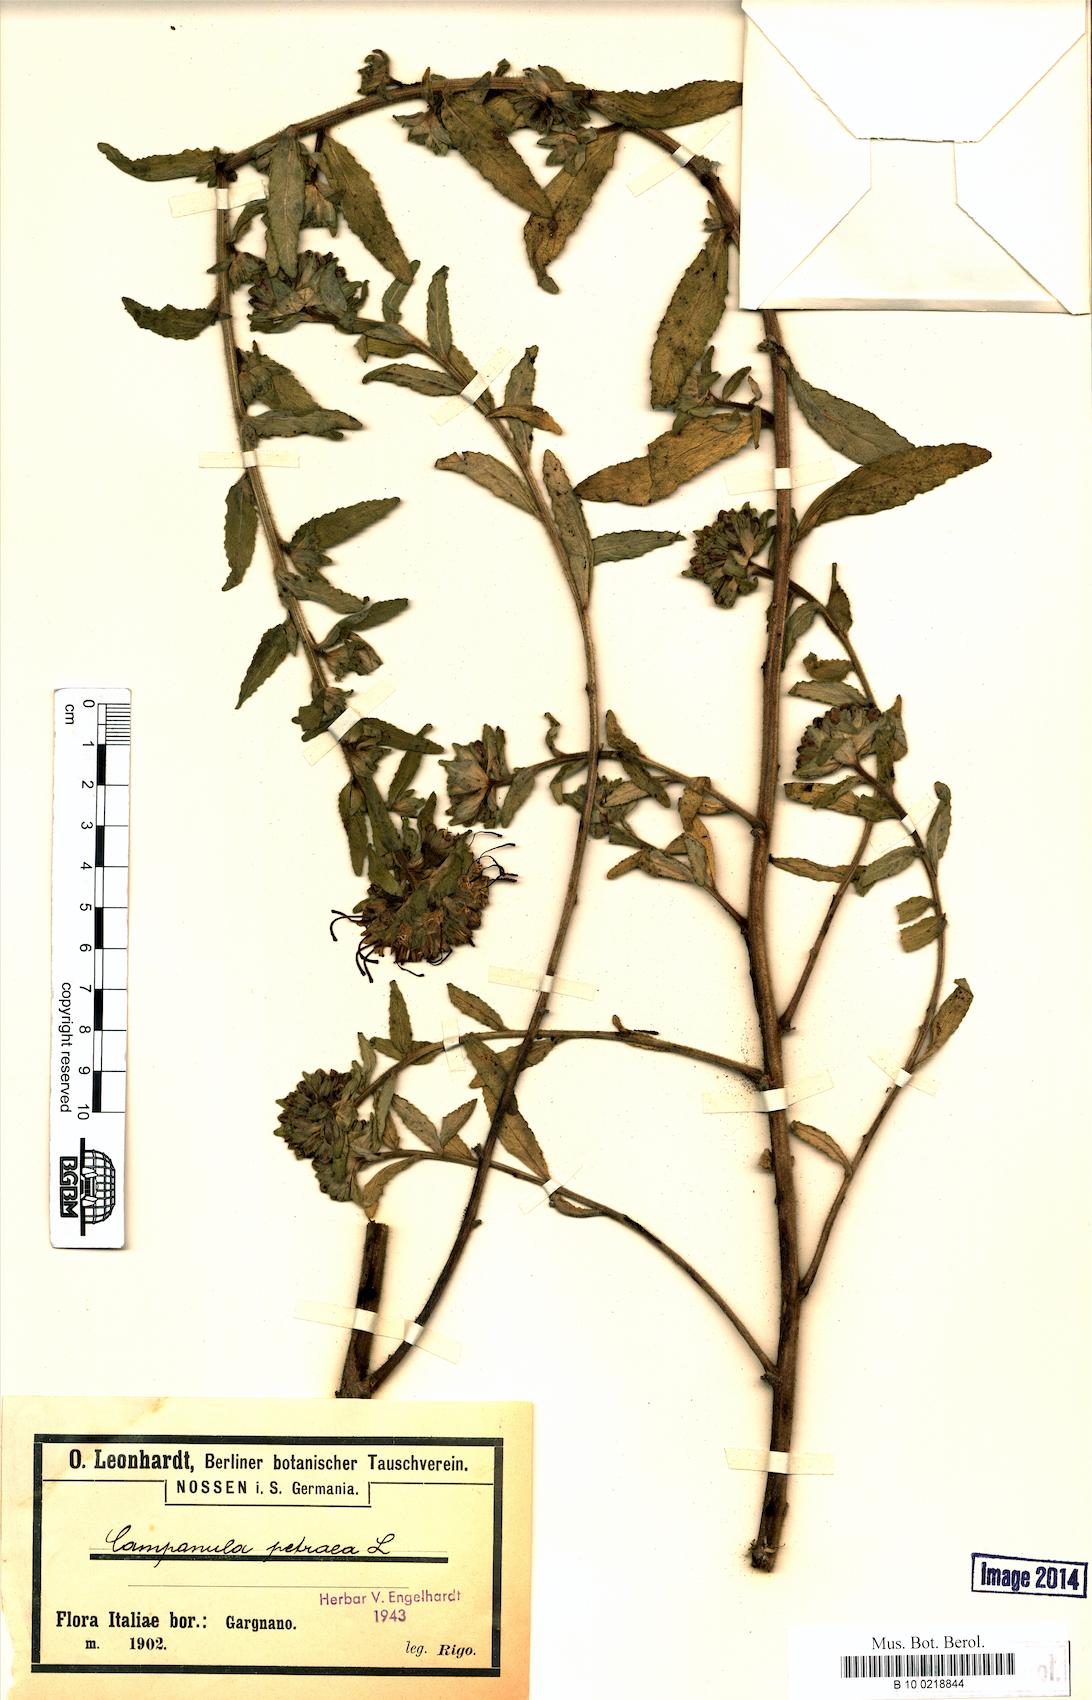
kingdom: Plantae
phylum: Tracheophyta
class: Magnoliopsida
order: Asterales
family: Campanulaceae
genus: Campanula
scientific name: Campanula petraea
